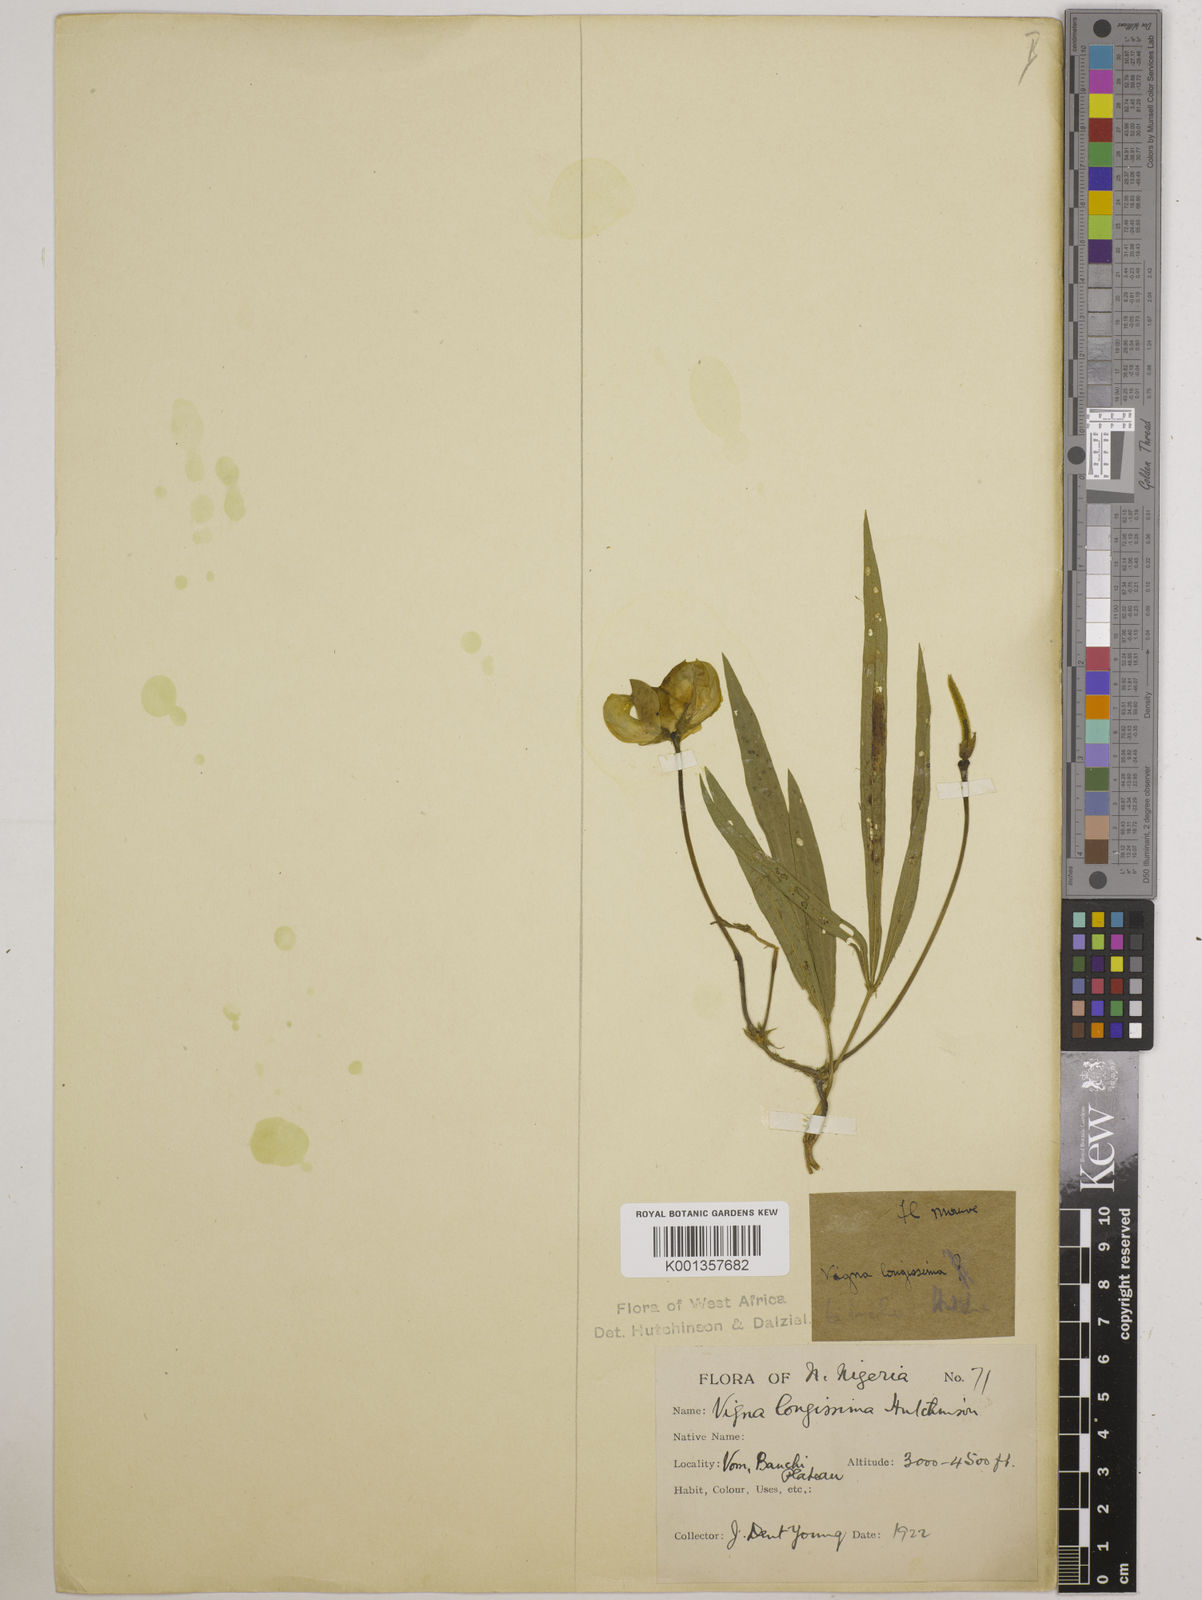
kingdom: Plantae
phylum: Tracheophyta
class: Magnoliopsida
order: Fabales
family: Fabaceae
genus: Vigna
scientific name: Vigna longissima
